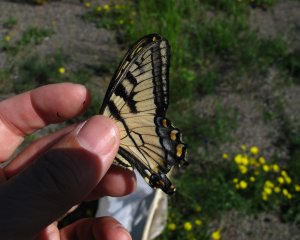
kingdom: Animalia
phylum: Arthropoda
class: Insecta
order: Lepidoptera
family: Papilionidae
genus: Pterourus
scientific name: Pterourus canadensis
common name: Canadian Tiger Swallowtail
